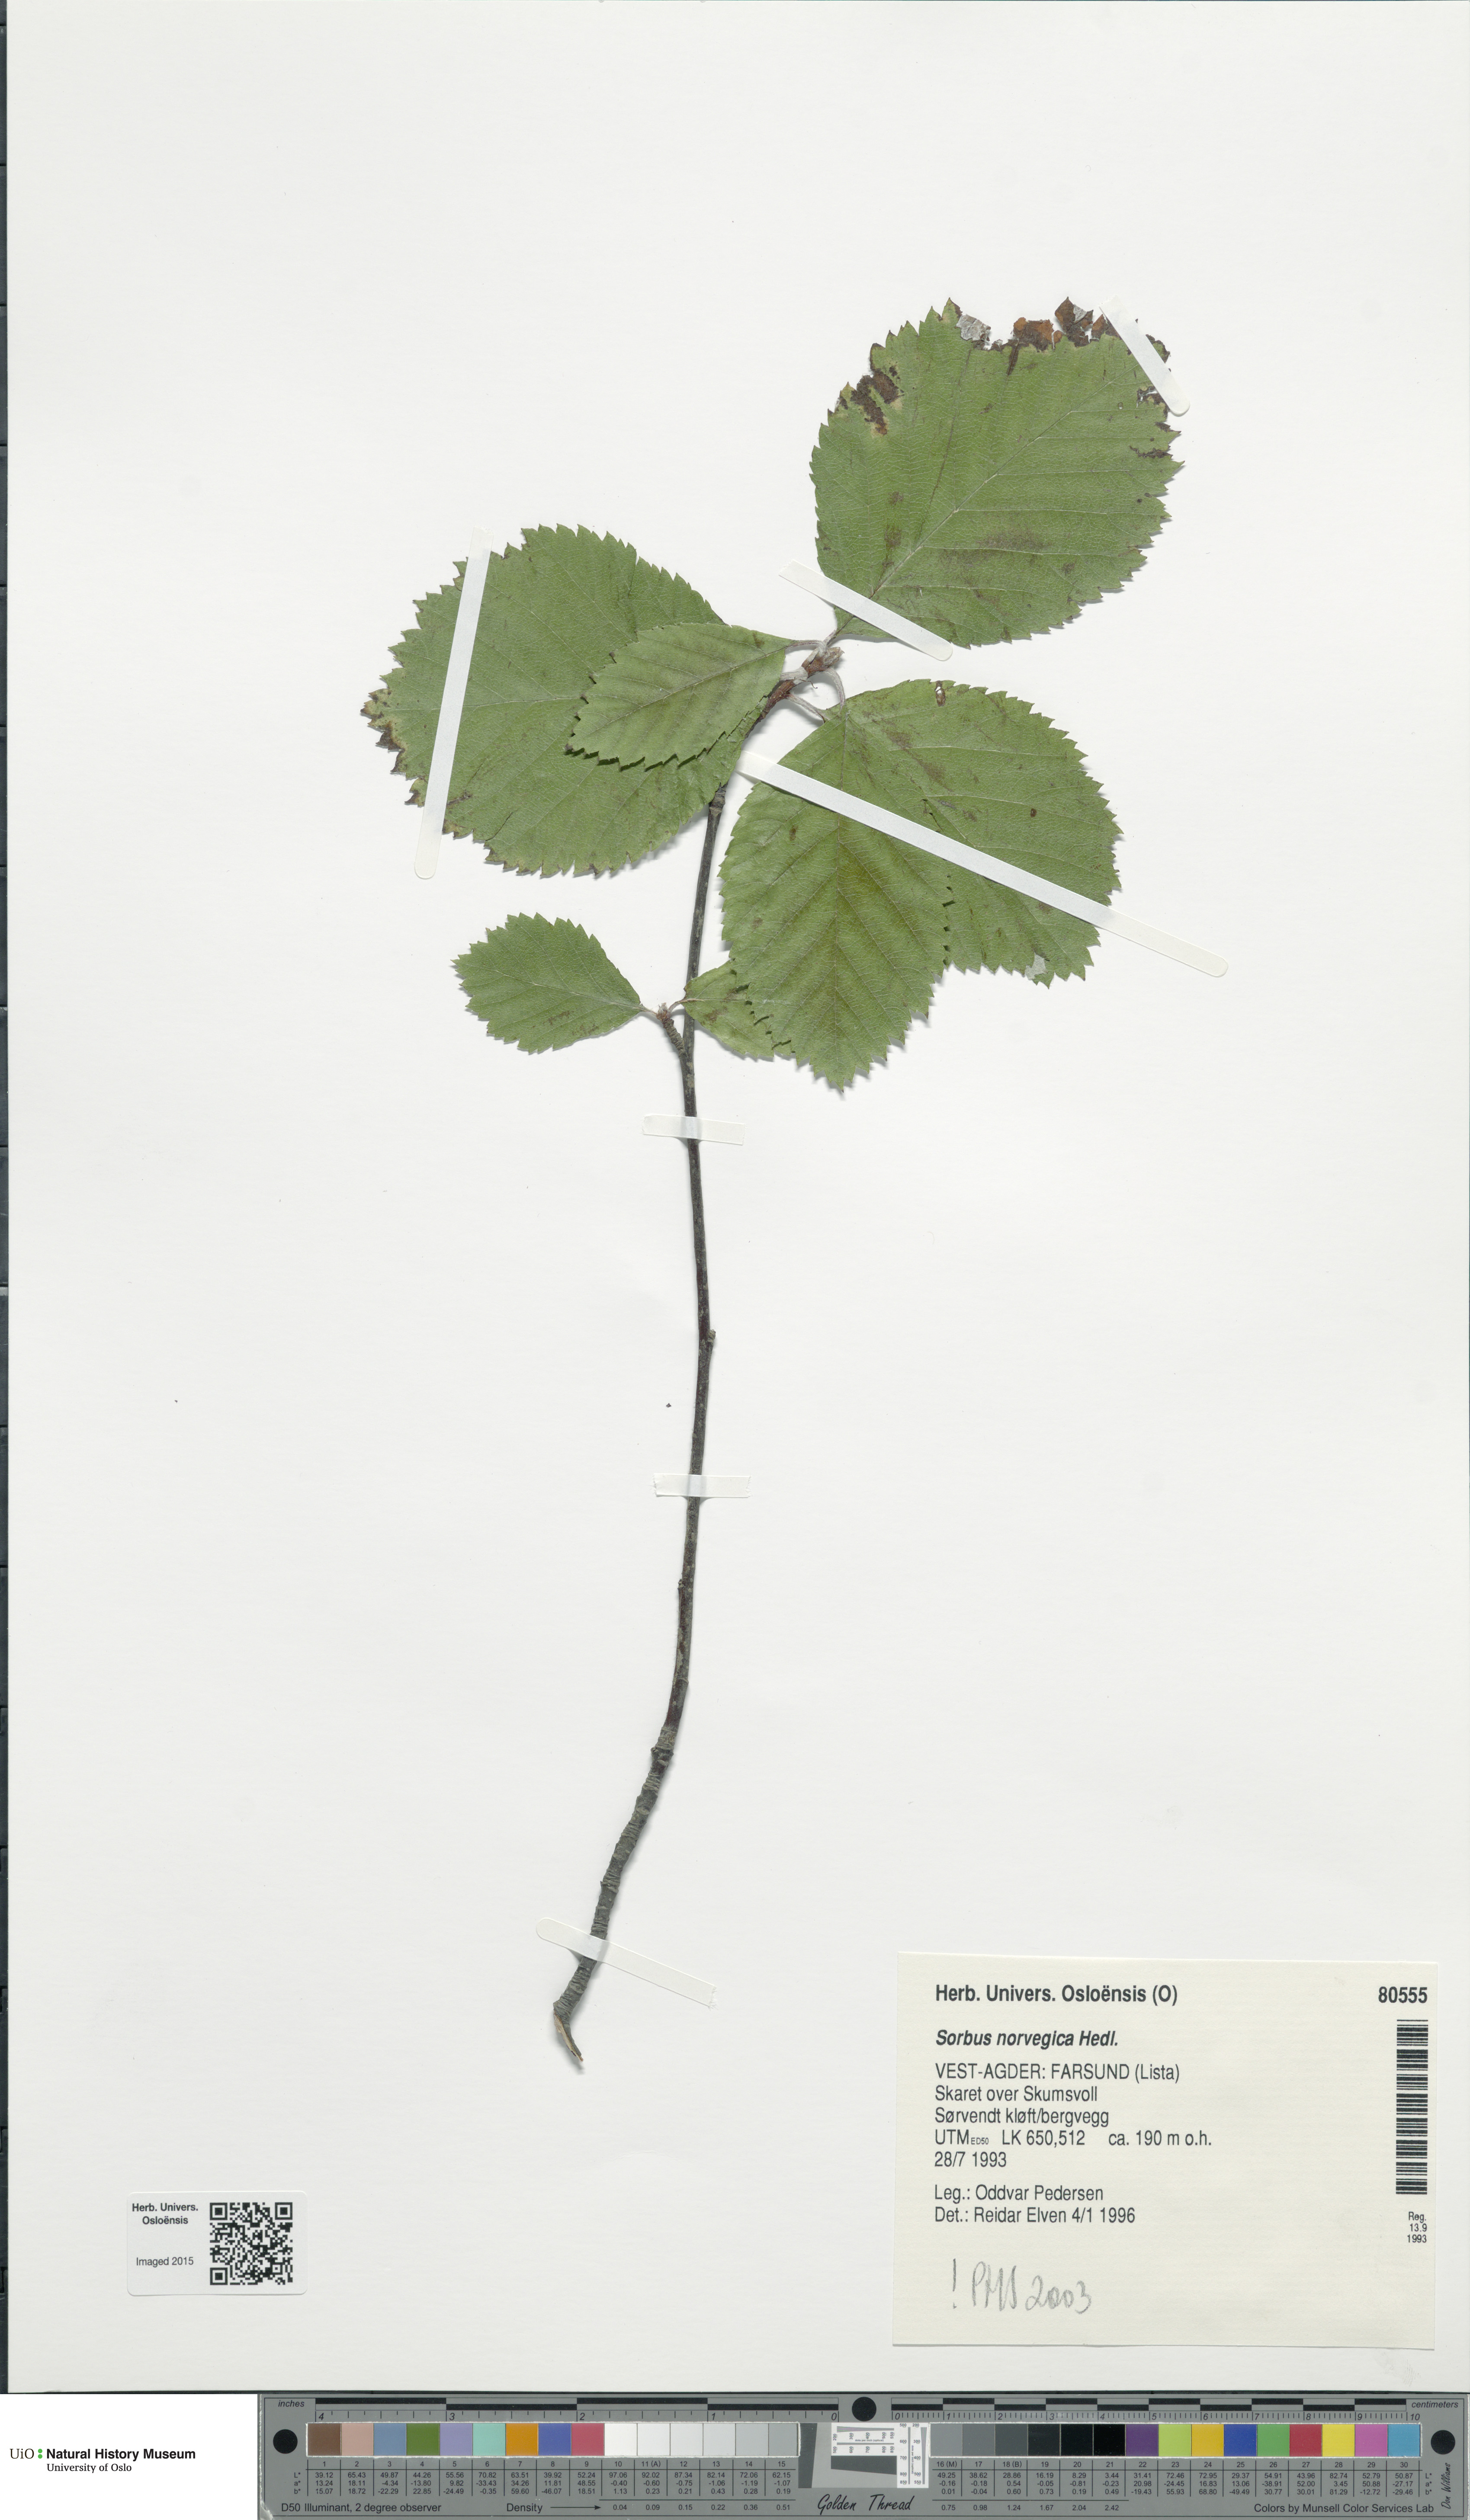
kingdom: Plantae
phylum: Tracheophyta
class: Magnoliopsida
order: Rosales
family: Rosaceae
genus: Aria
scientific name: Aria obtusifolia
